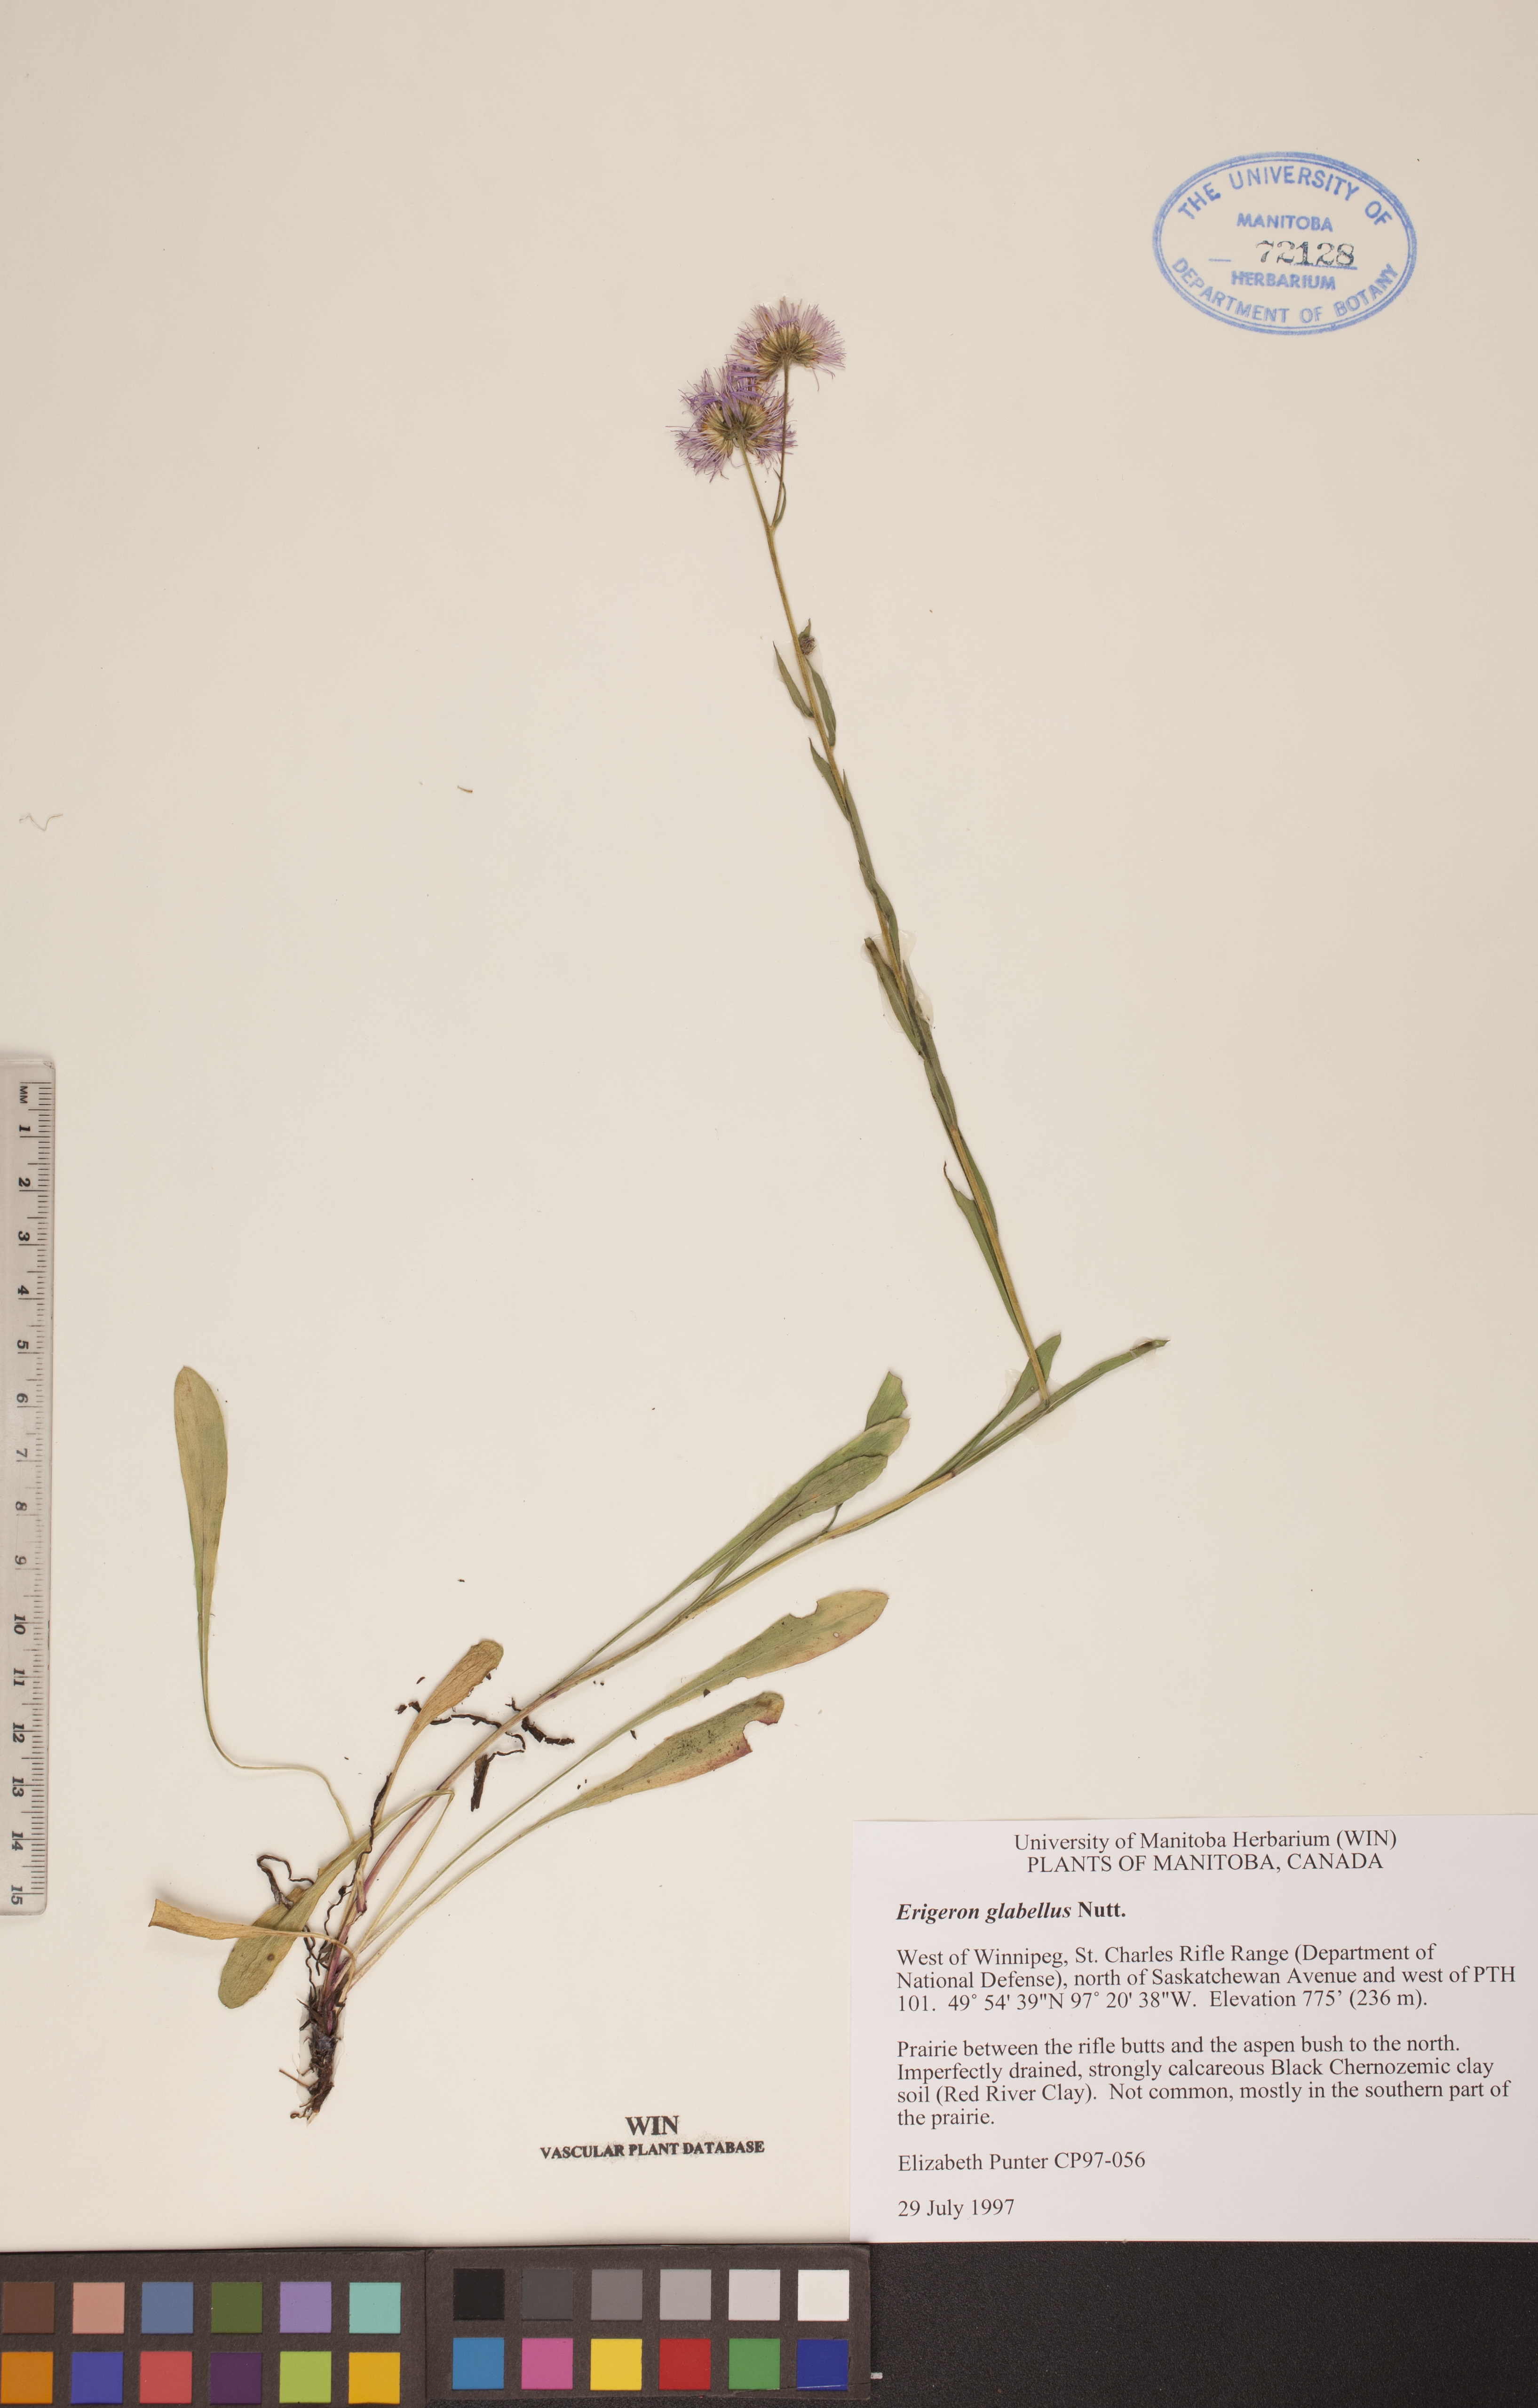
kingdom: Plantae
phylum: Tracheophyta
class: Magnoliopsida
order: Asterales
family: Asteraceae
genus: Erigeron
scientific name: Erigeron glabellus
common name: Smooth fleabane
